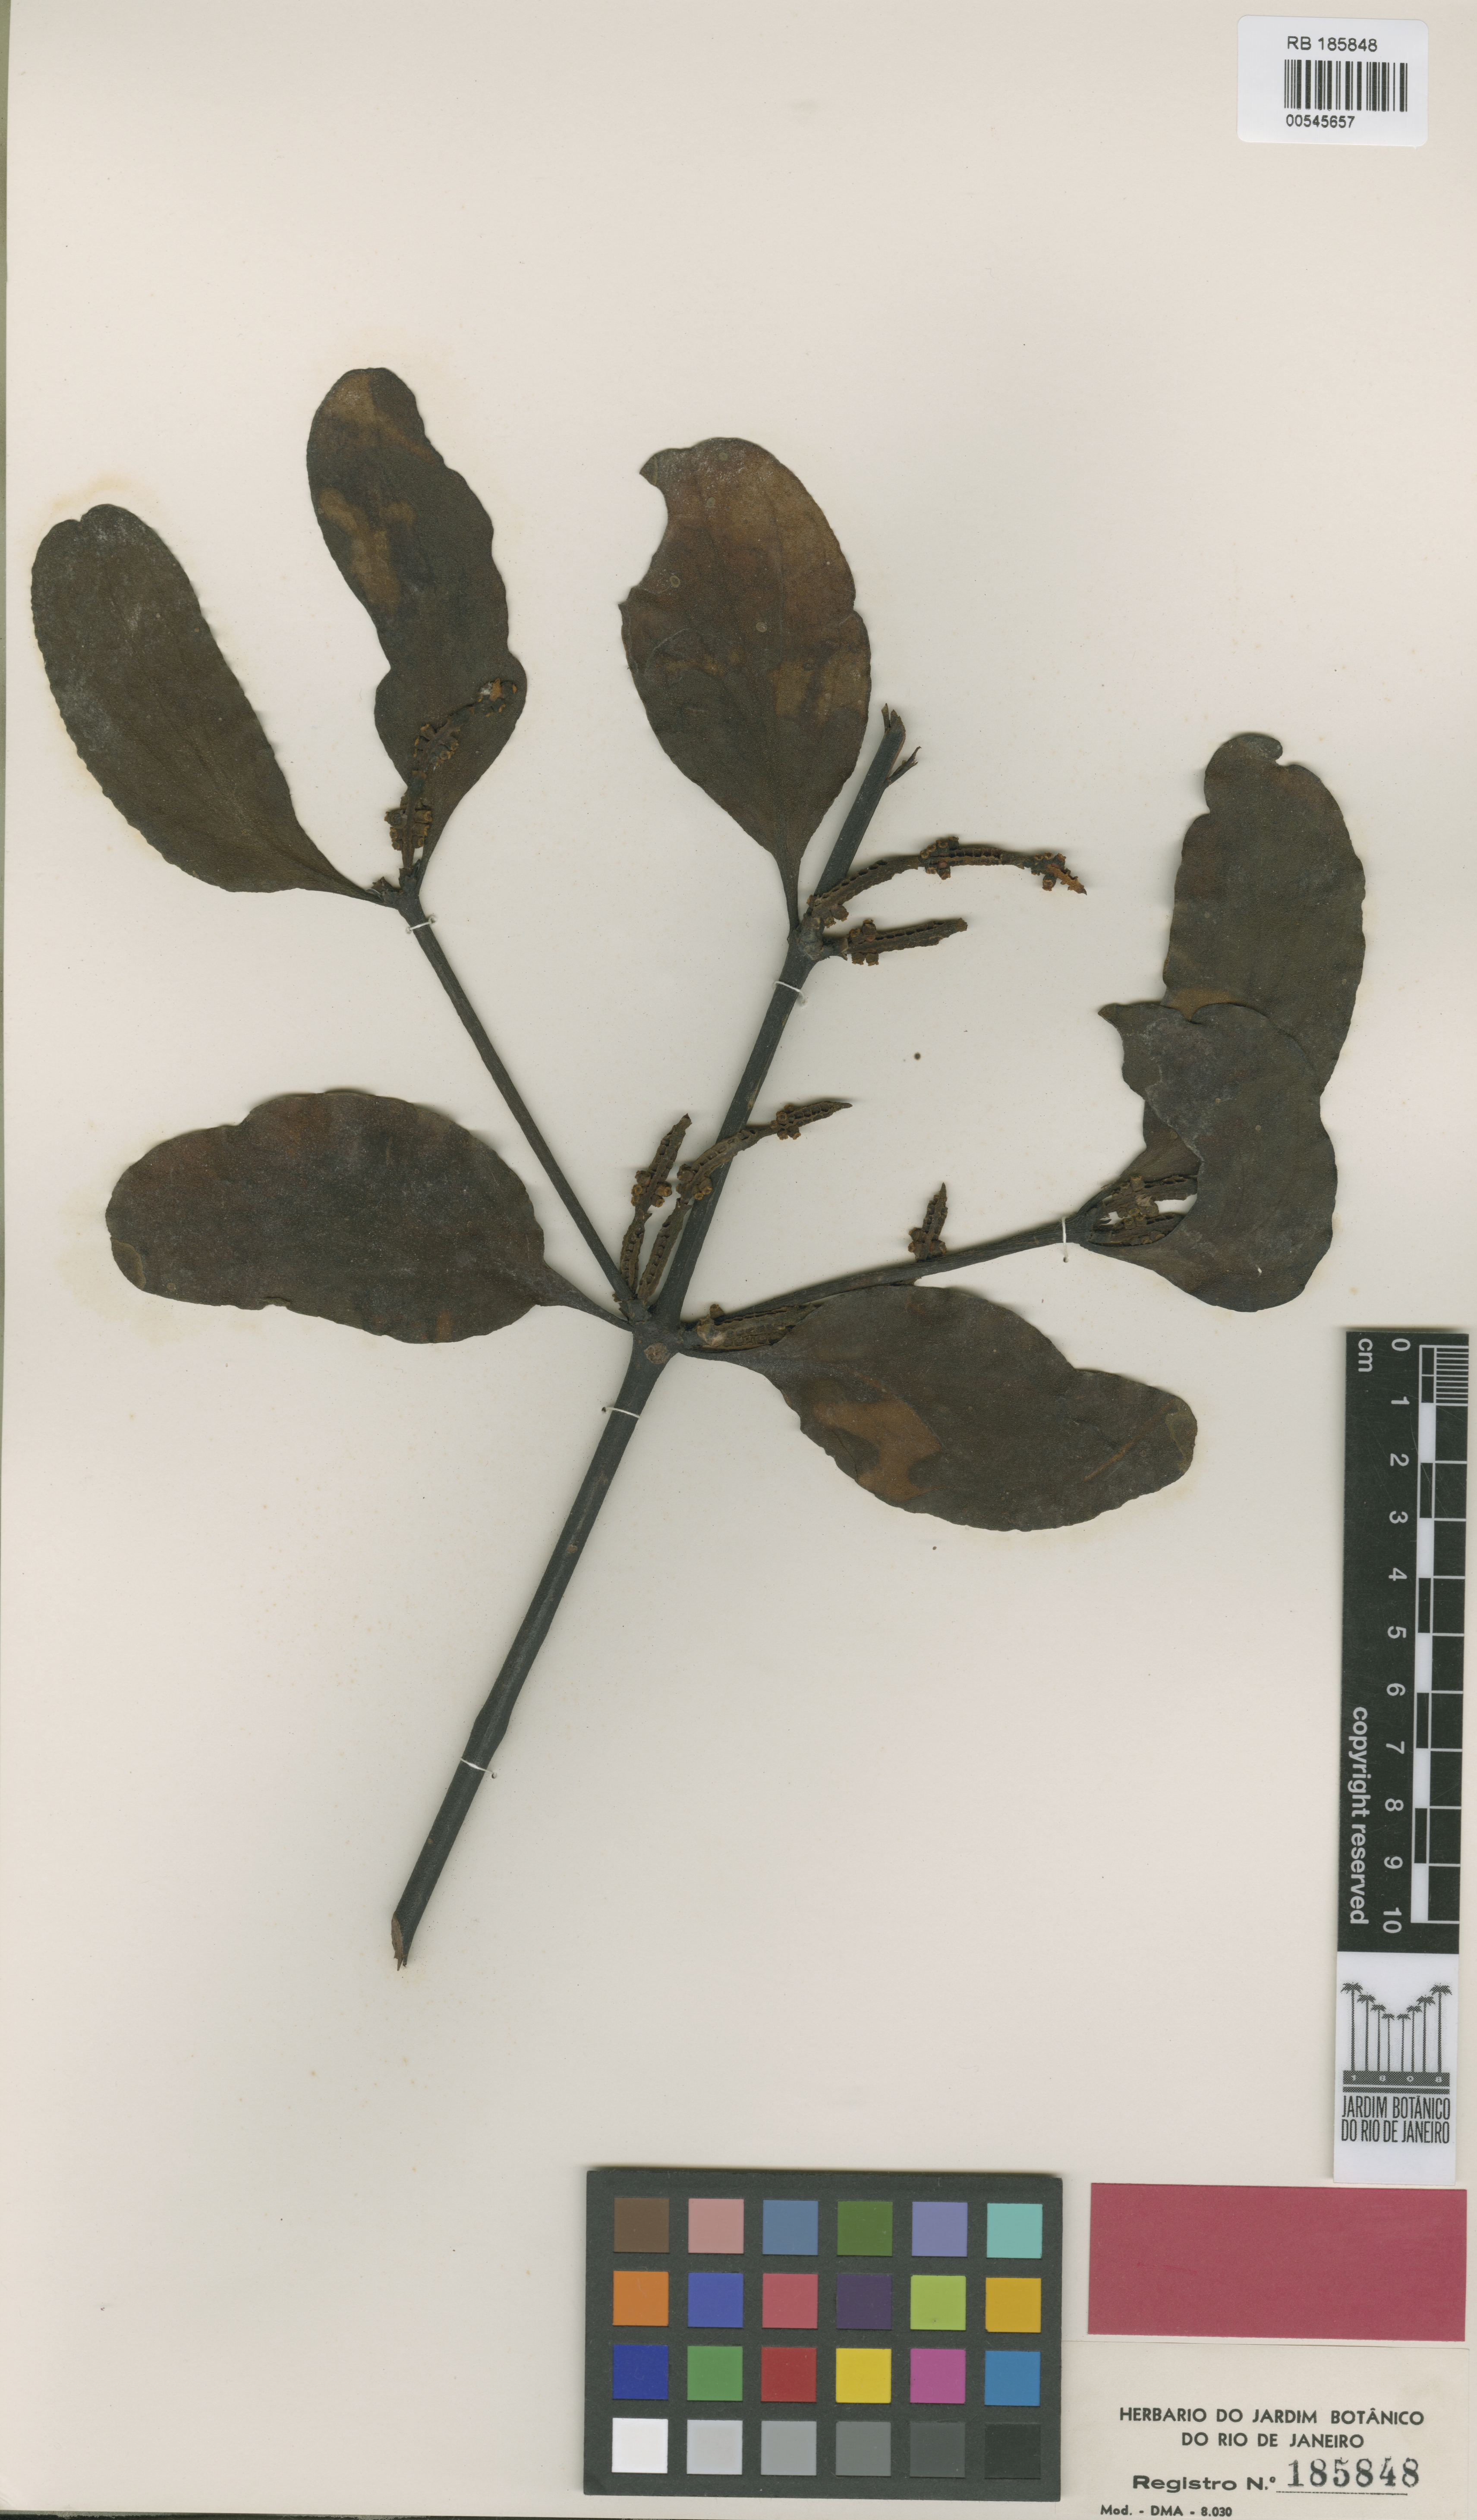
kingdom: Plantae
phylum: Tracheophyta
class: Magnoliopsida
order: Santalales
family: Viscaceae
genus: Phoradendron
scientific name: Phoradendron eggersii
